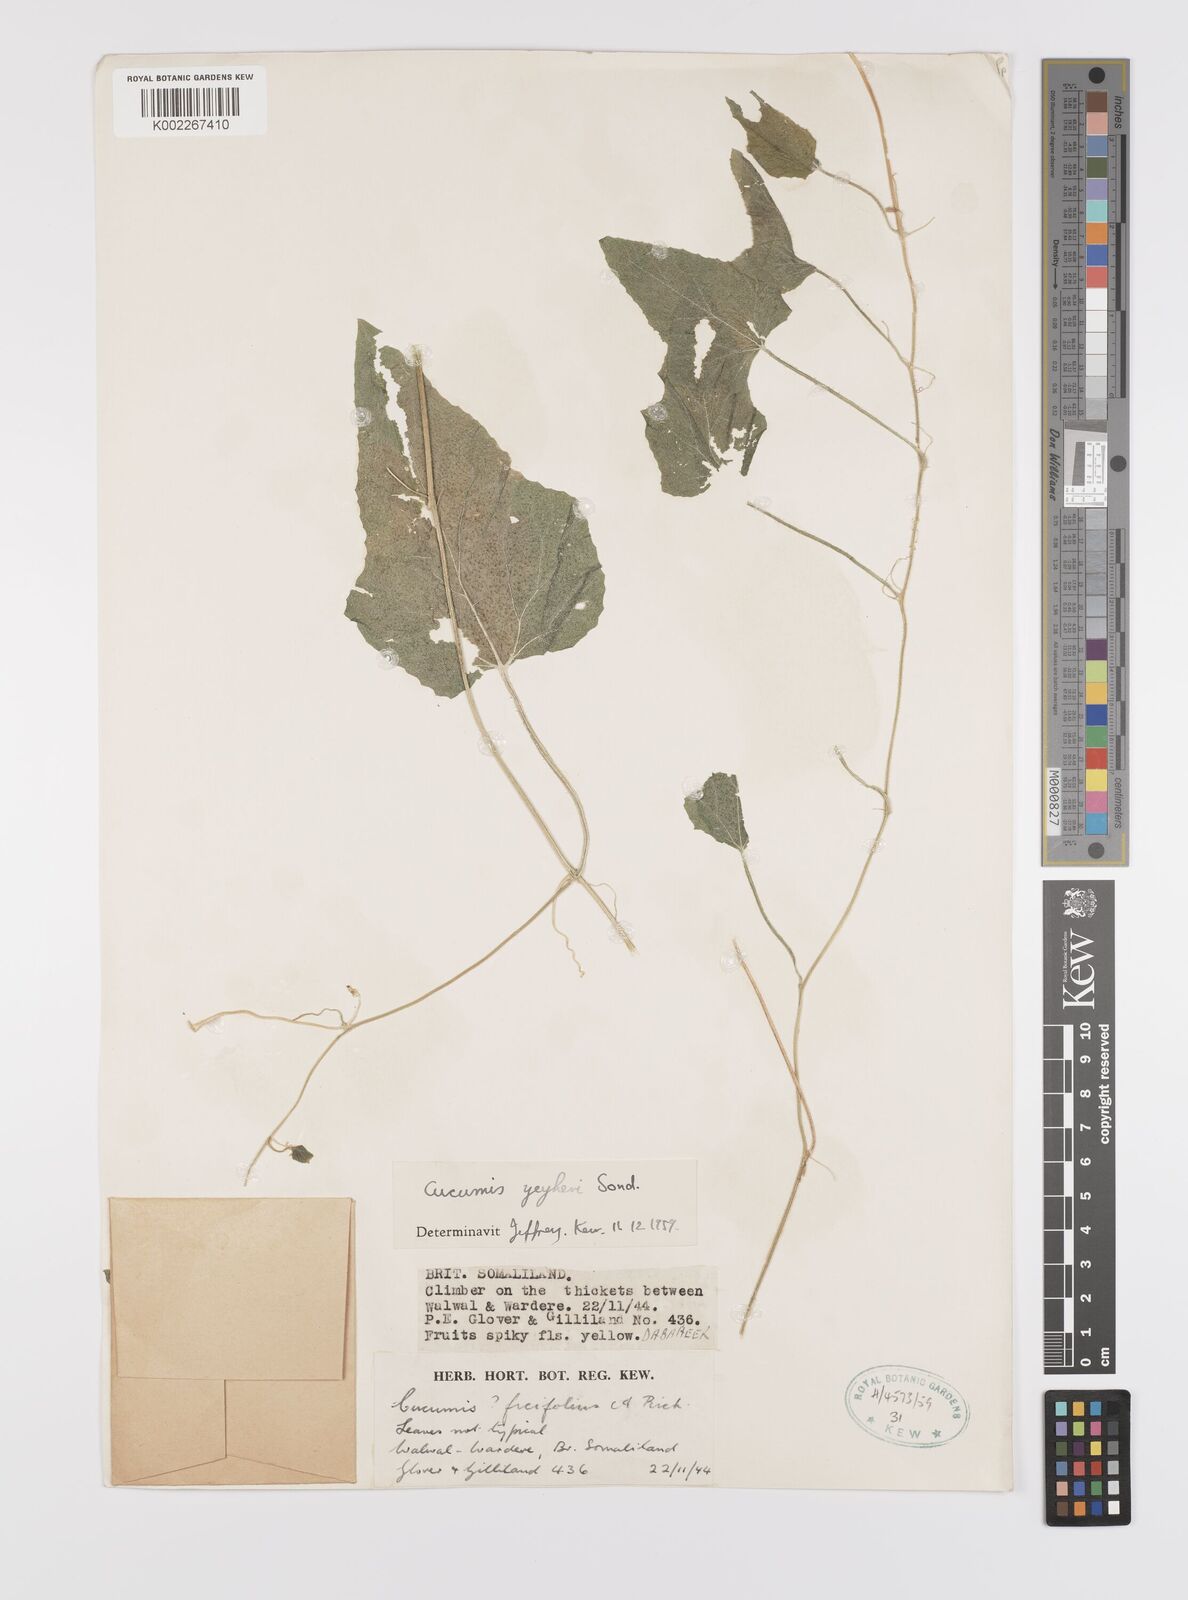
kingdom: Plantae
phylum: Tracheophyta
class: Magnoliopsida
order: Cucurbitales
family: Cucurbitaceae
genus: Cucumis
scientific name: Cucumis hirsutus
